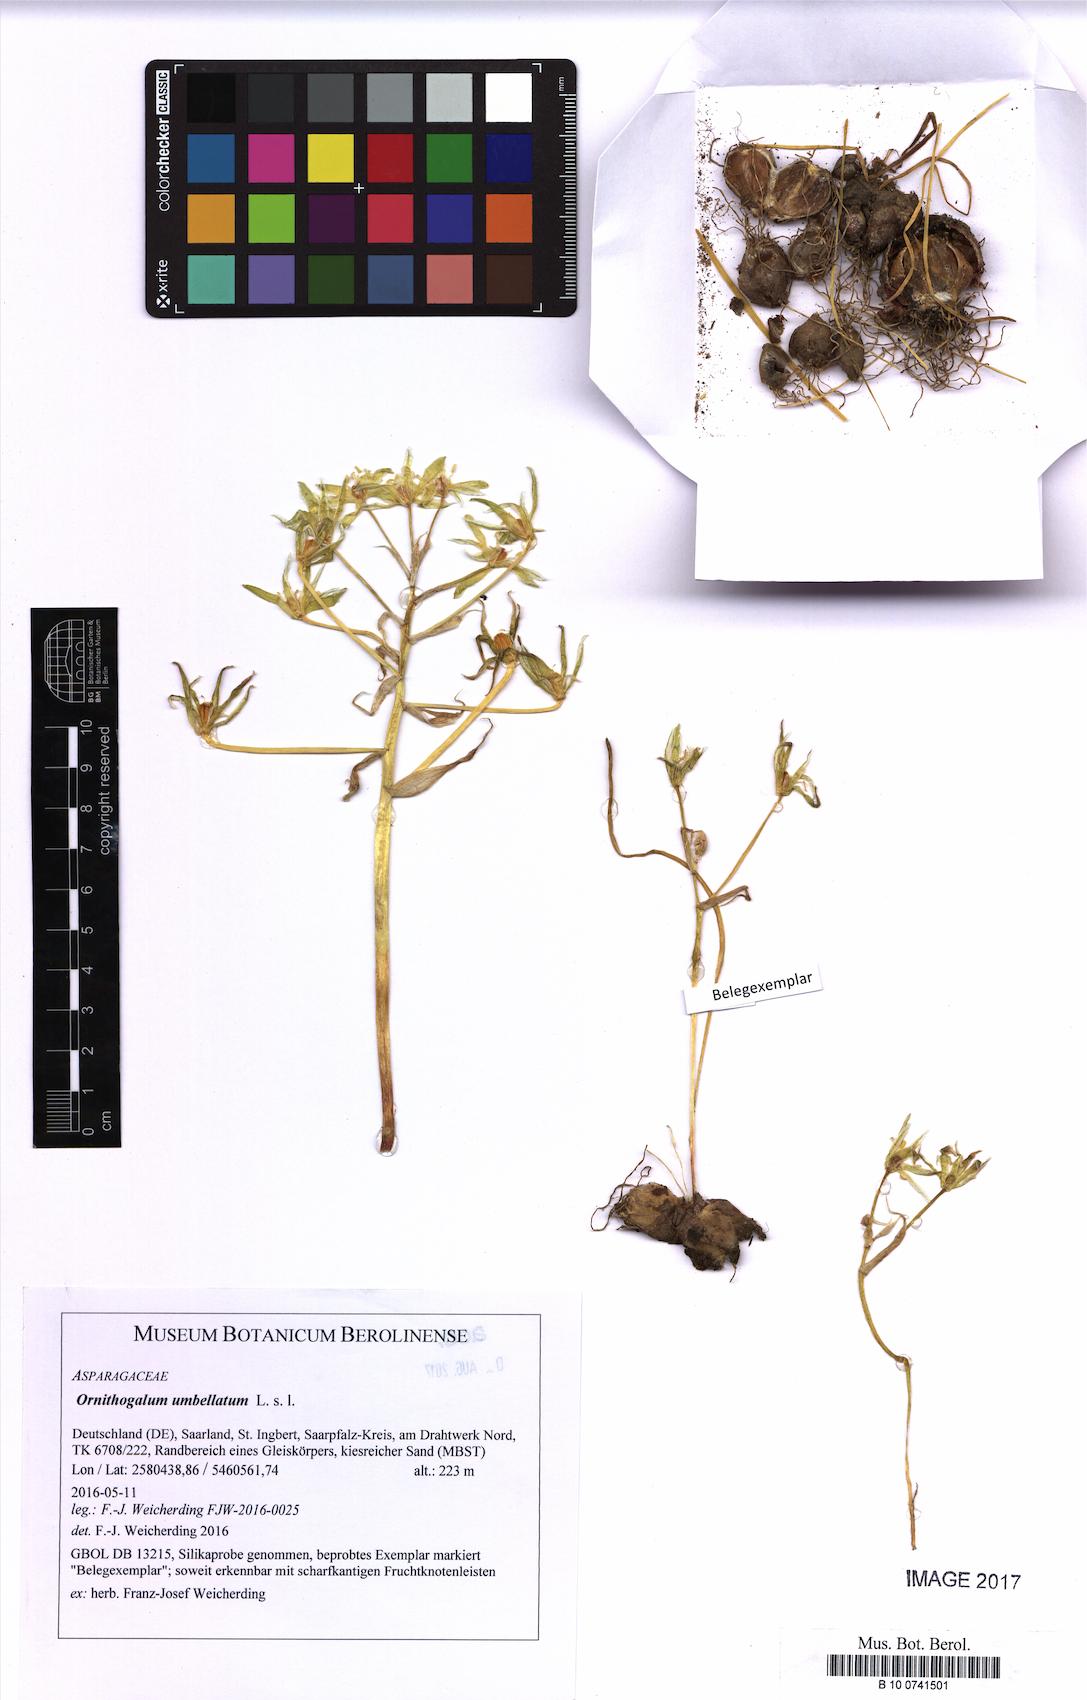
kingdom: Plantae
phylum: Tracheophyta
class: Liliopsida
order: Asparagales
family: Asparagaceae
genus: Ornithogalum
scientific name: Ornithogalum umbellatum
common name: Garden star-of-bethlehem
